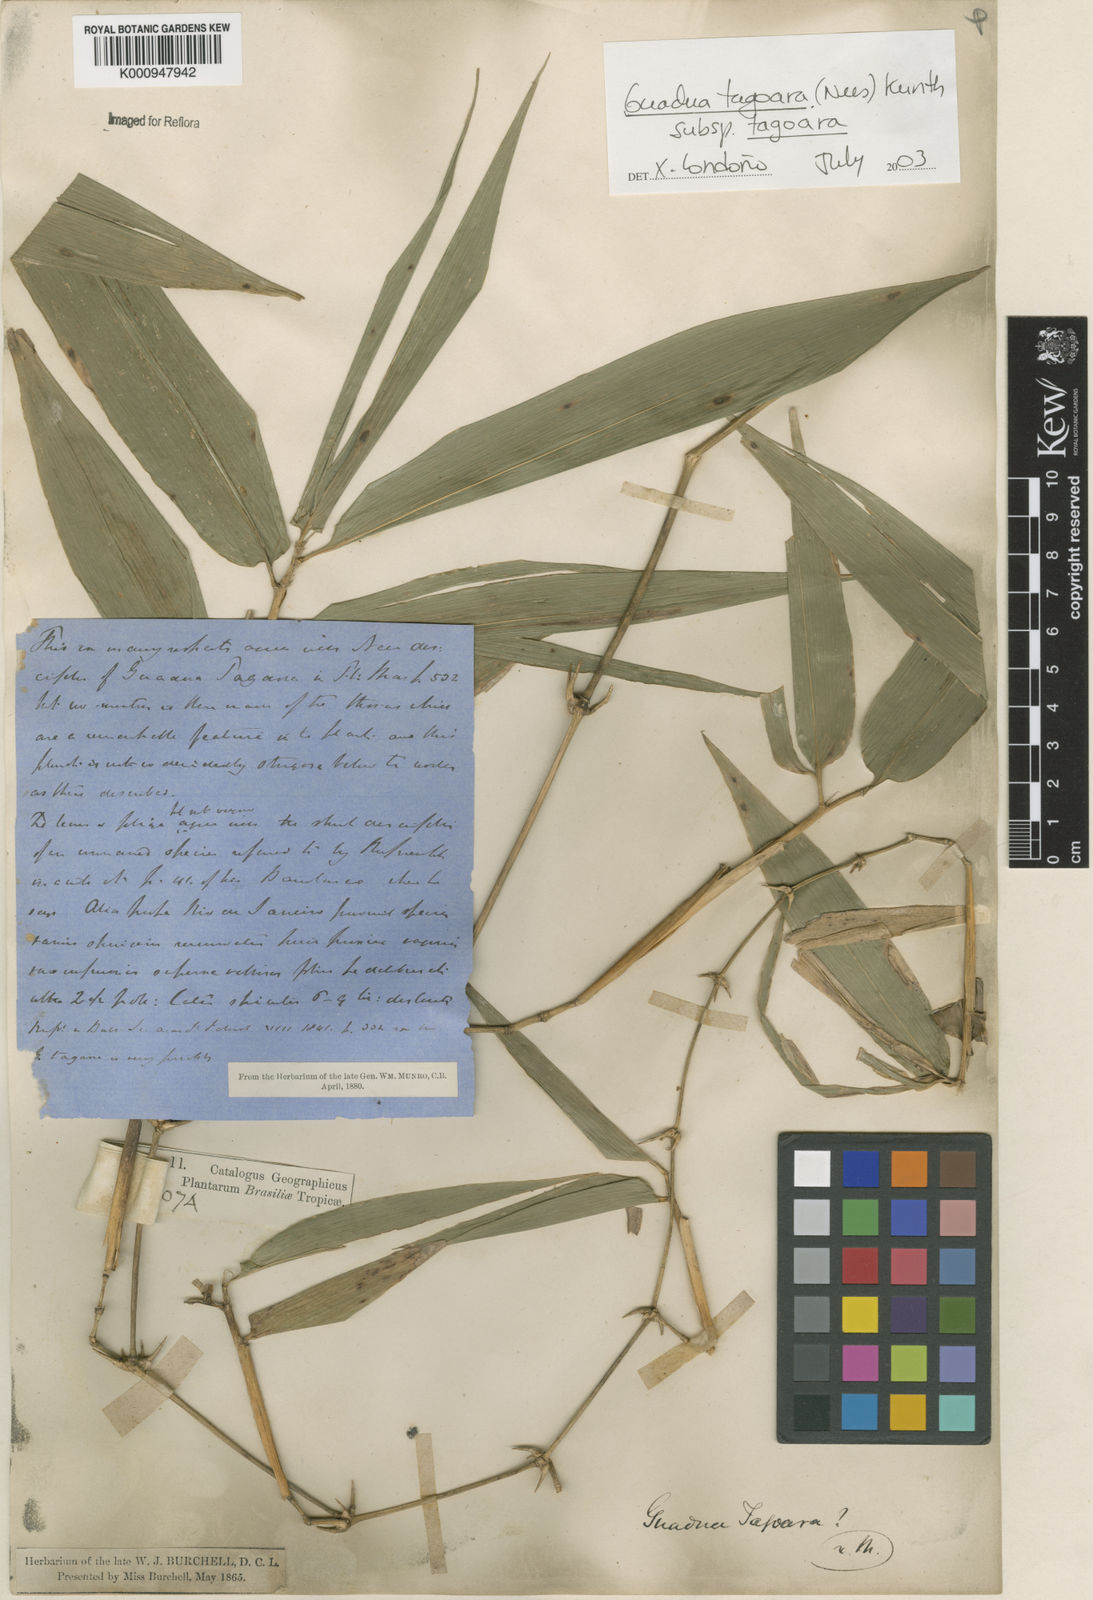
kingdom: Plantae
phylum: Tracheophyta
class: Liliopsida
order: Poales
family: Poaceae
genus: Guadua
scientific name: Guadua tagoara
